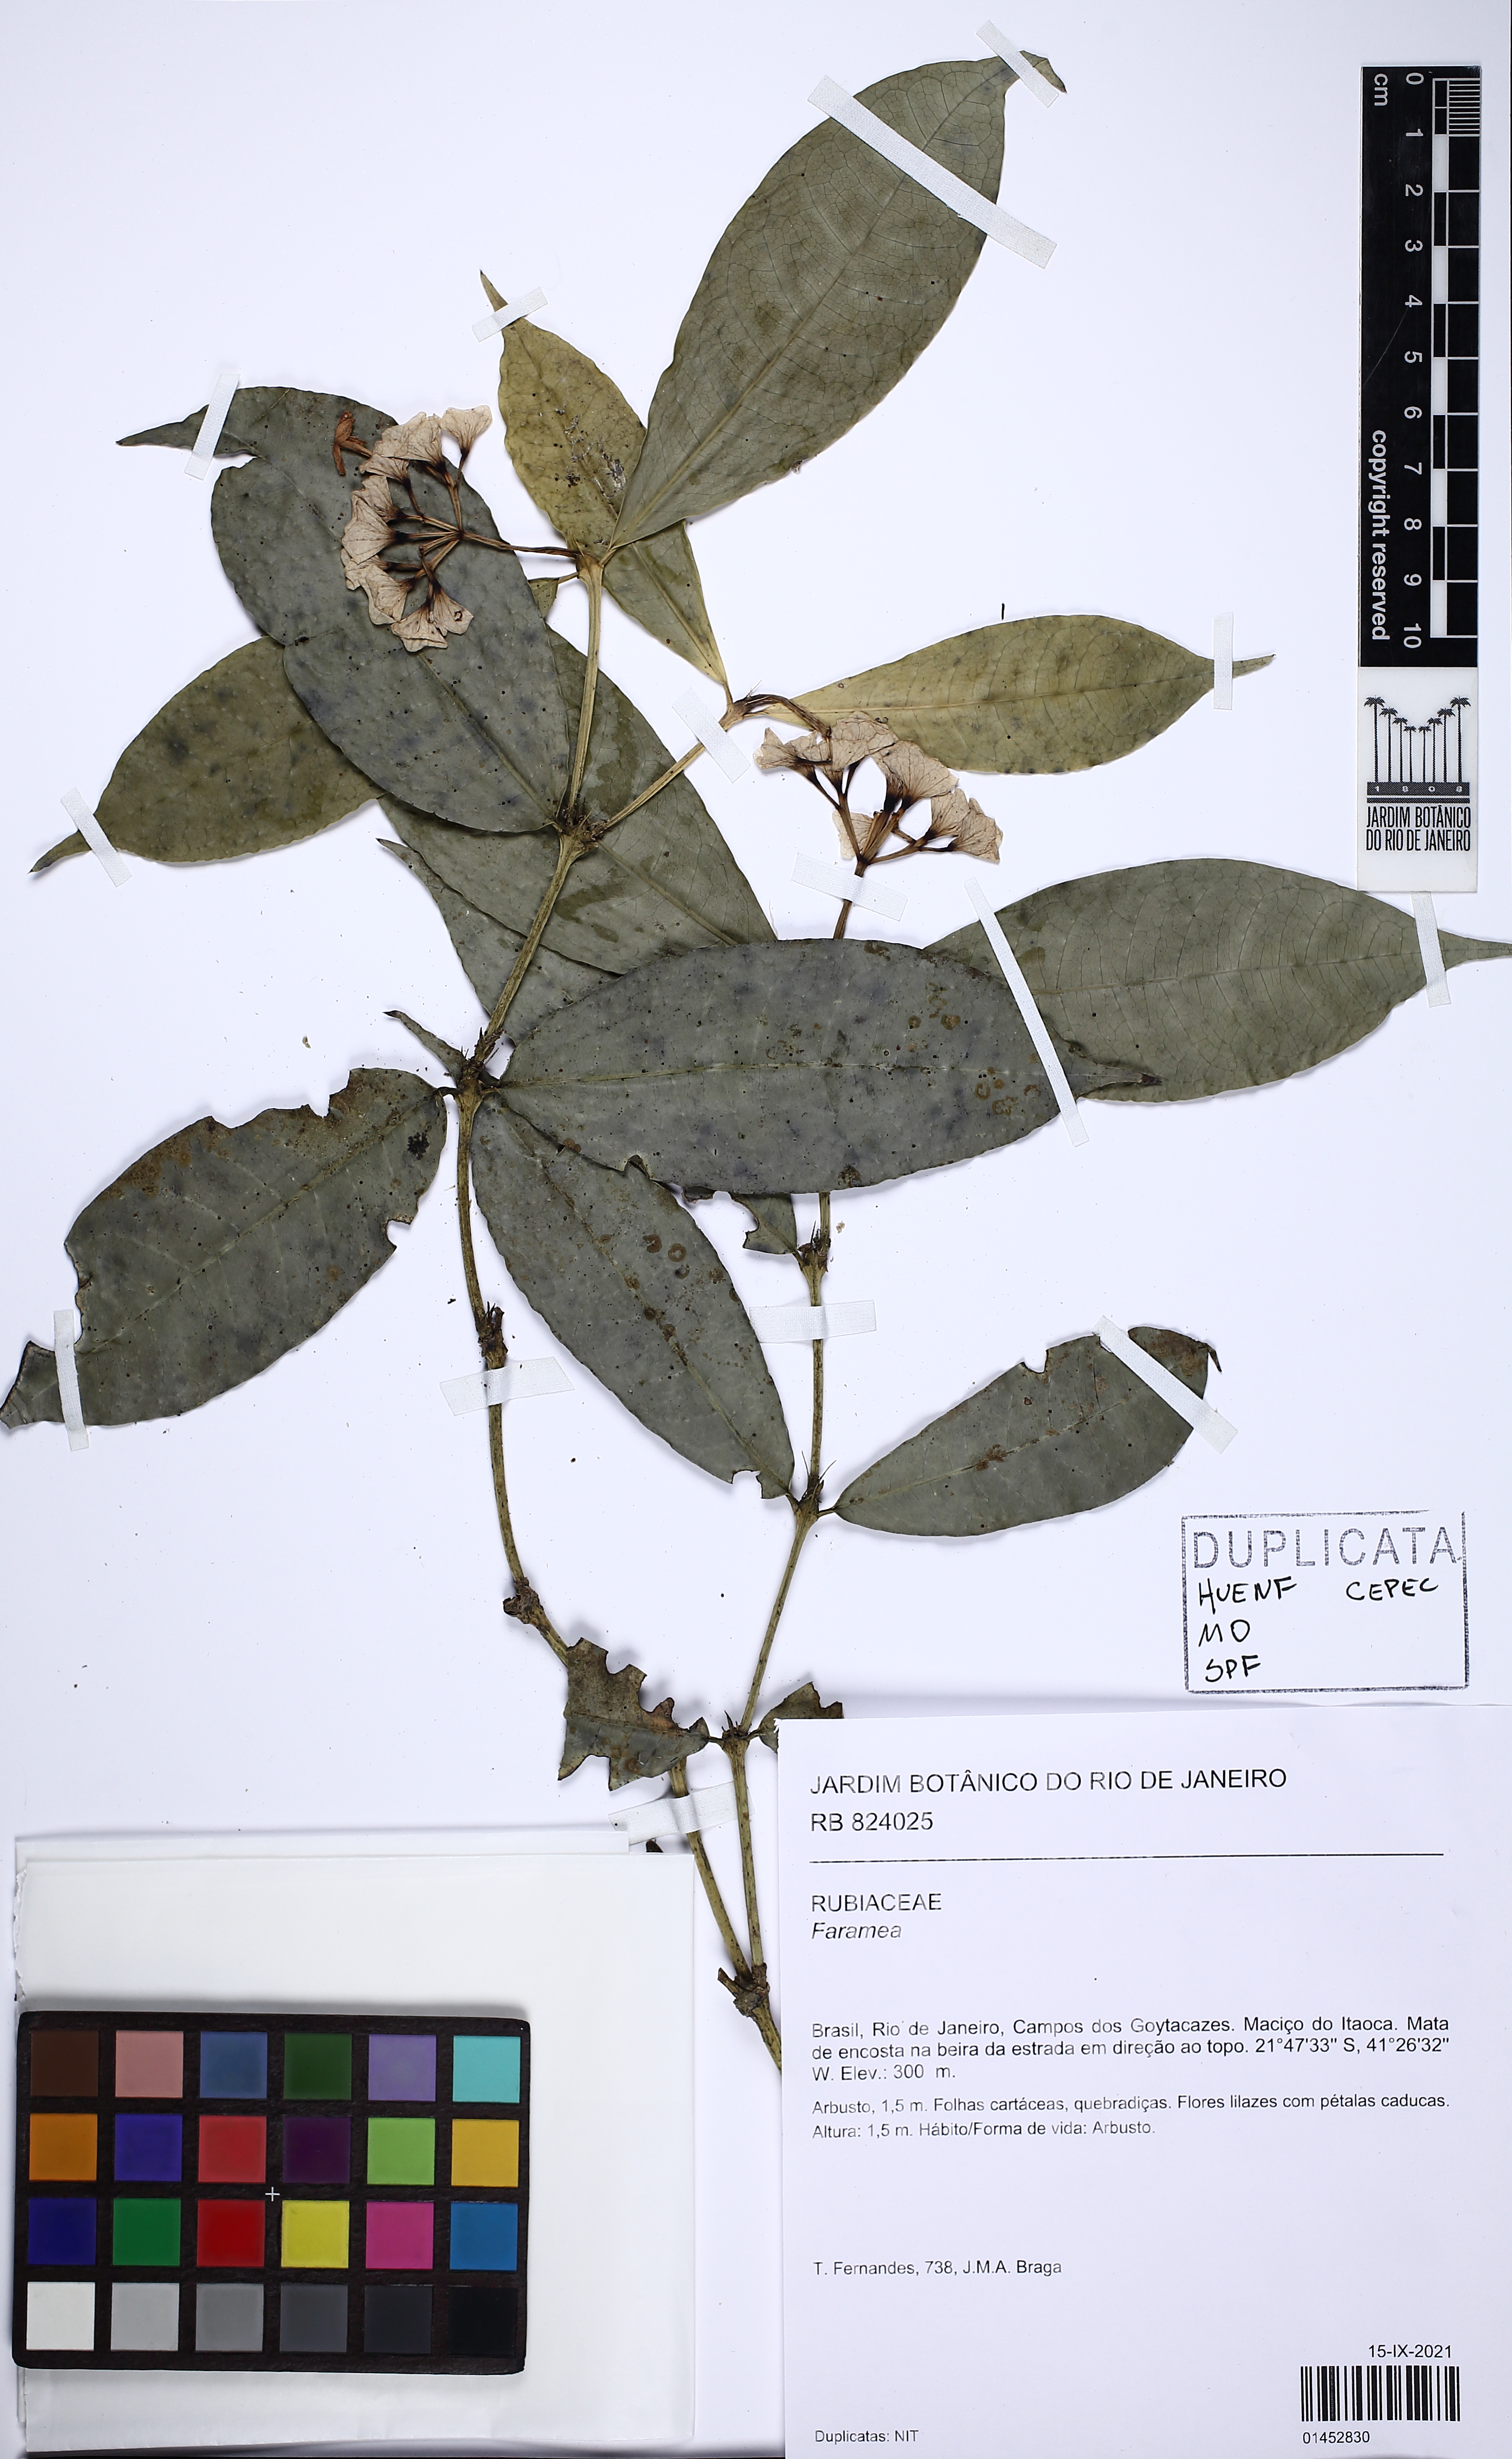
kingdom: Plantae
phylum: Tracheophyta
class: Magnoliopsida
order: Gentianales
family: Rubiaceae
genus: Faramea
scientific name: Faramea includens
